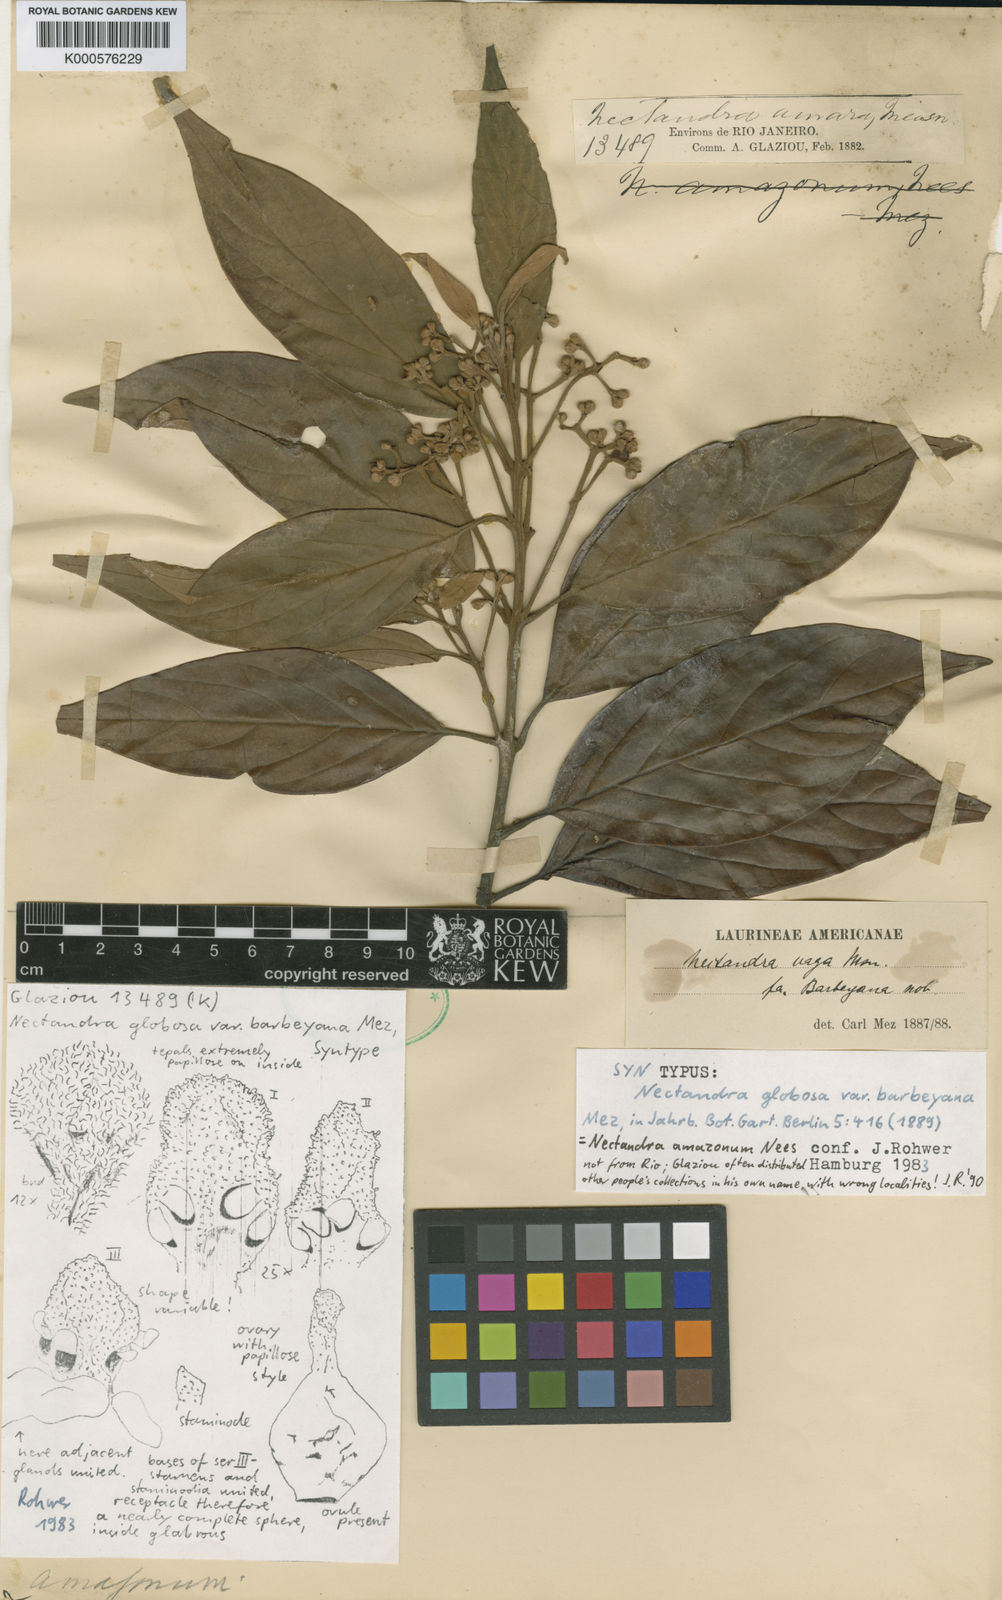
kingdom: Plantae
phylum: Tracheophyta
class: Magnoliopsida
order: Laurales
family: Lauraceae
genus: Nectandra
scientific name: Nectandra globosa
